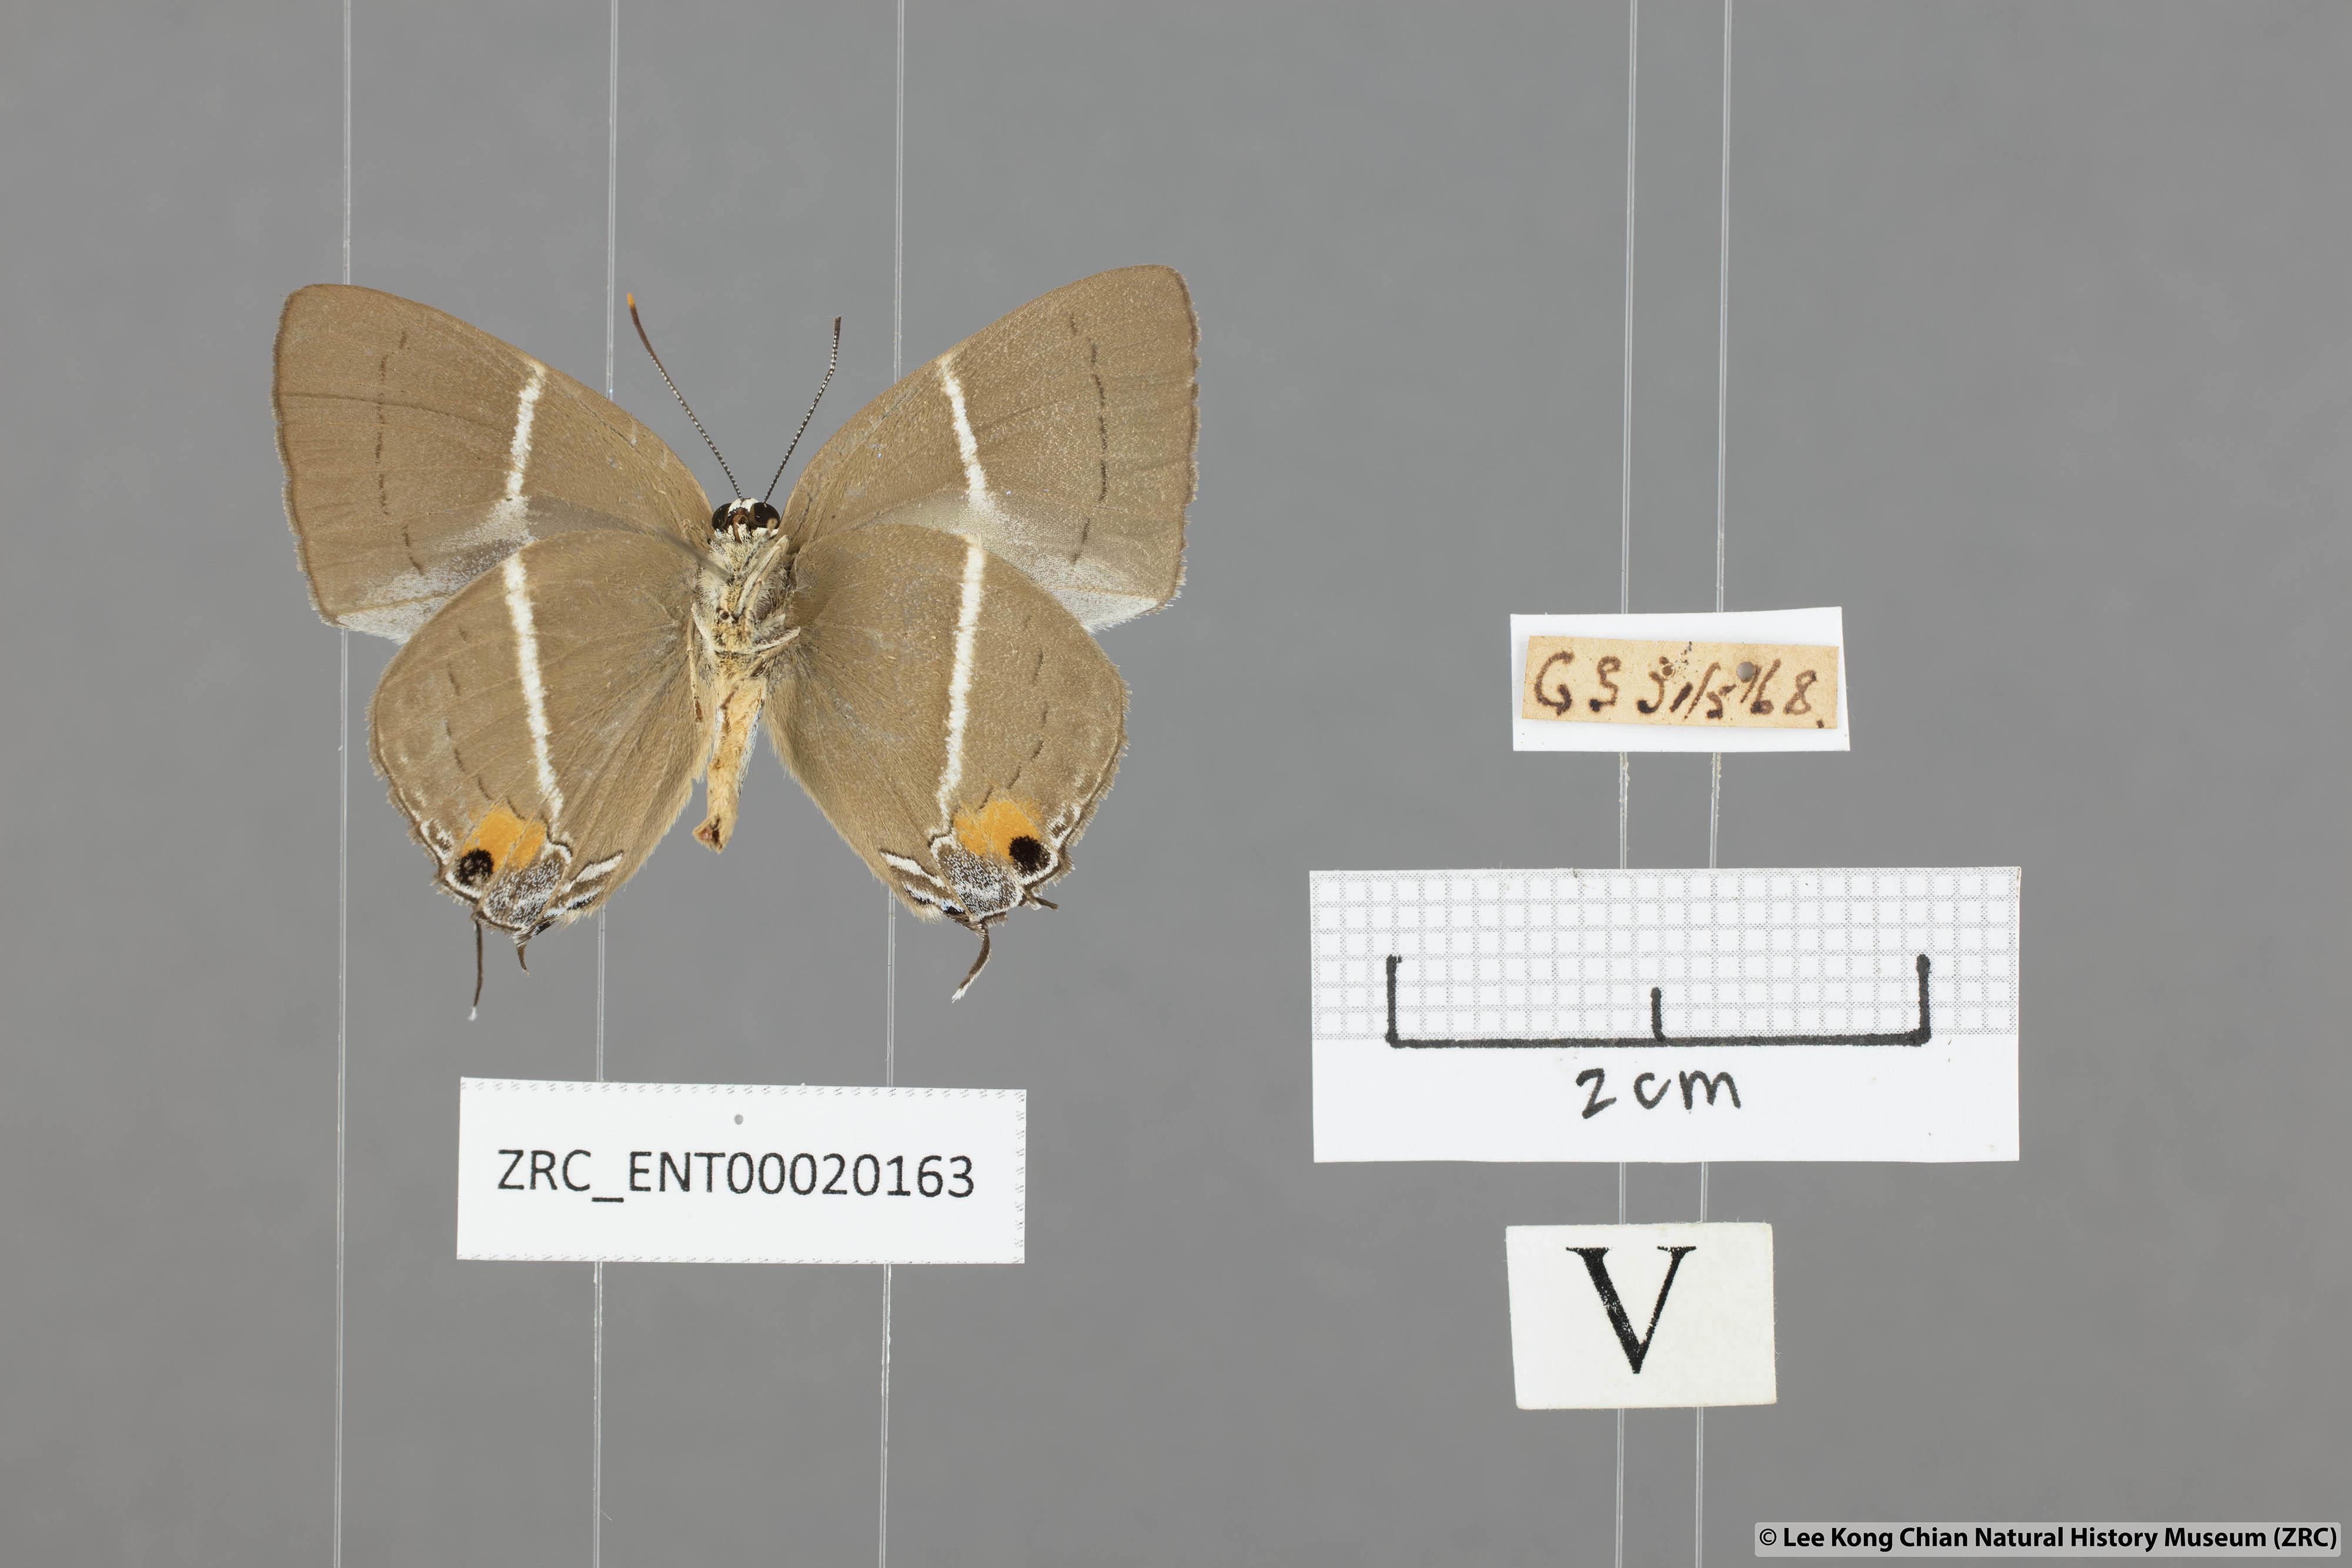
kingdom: Animalia
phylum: Arthropoda
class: Insecta
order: Lepidoptera
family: Lycaenidae
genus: Dacalana
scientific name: Dacalana vidura
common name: Medium-branded royal
